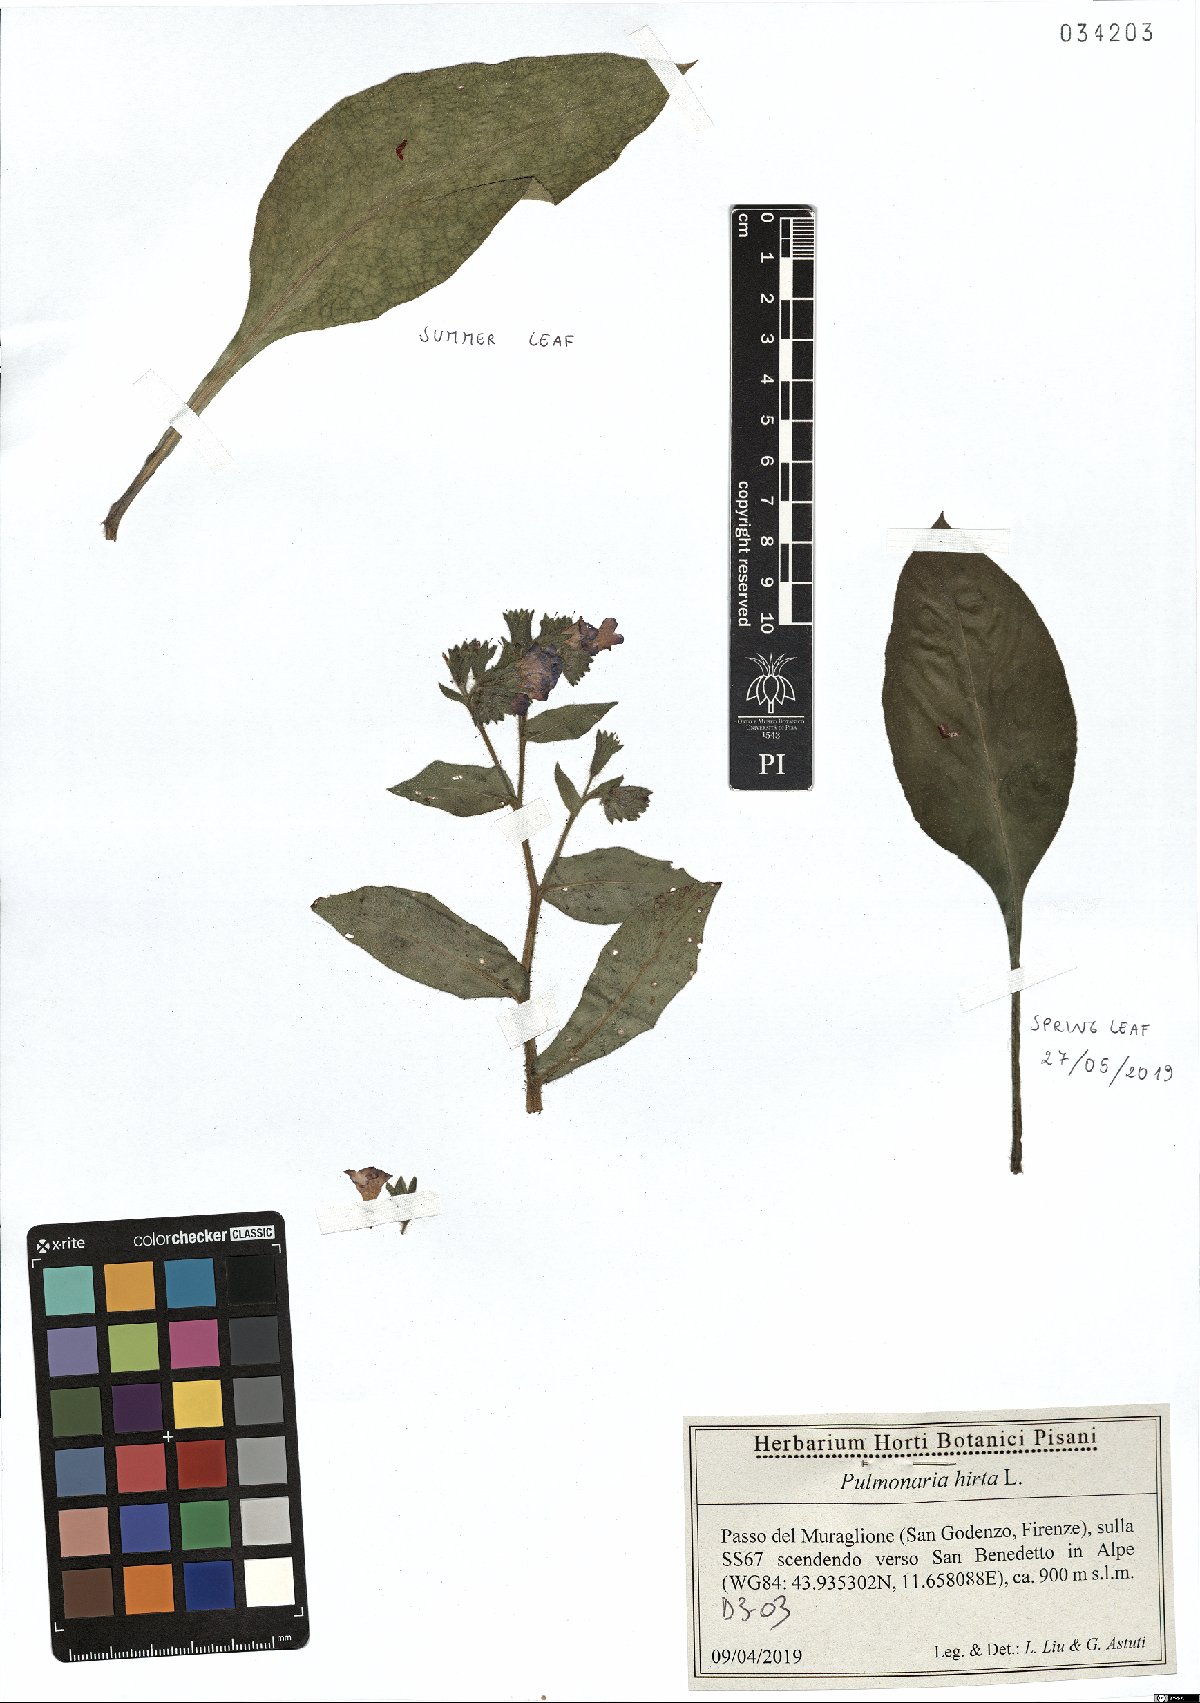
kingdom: Plantae
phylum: Tracheophyta
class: Magnoliopsida
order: Boraginales
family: Boraginaceae
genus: Pulmonaria
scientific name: Pulmonaria hirta
